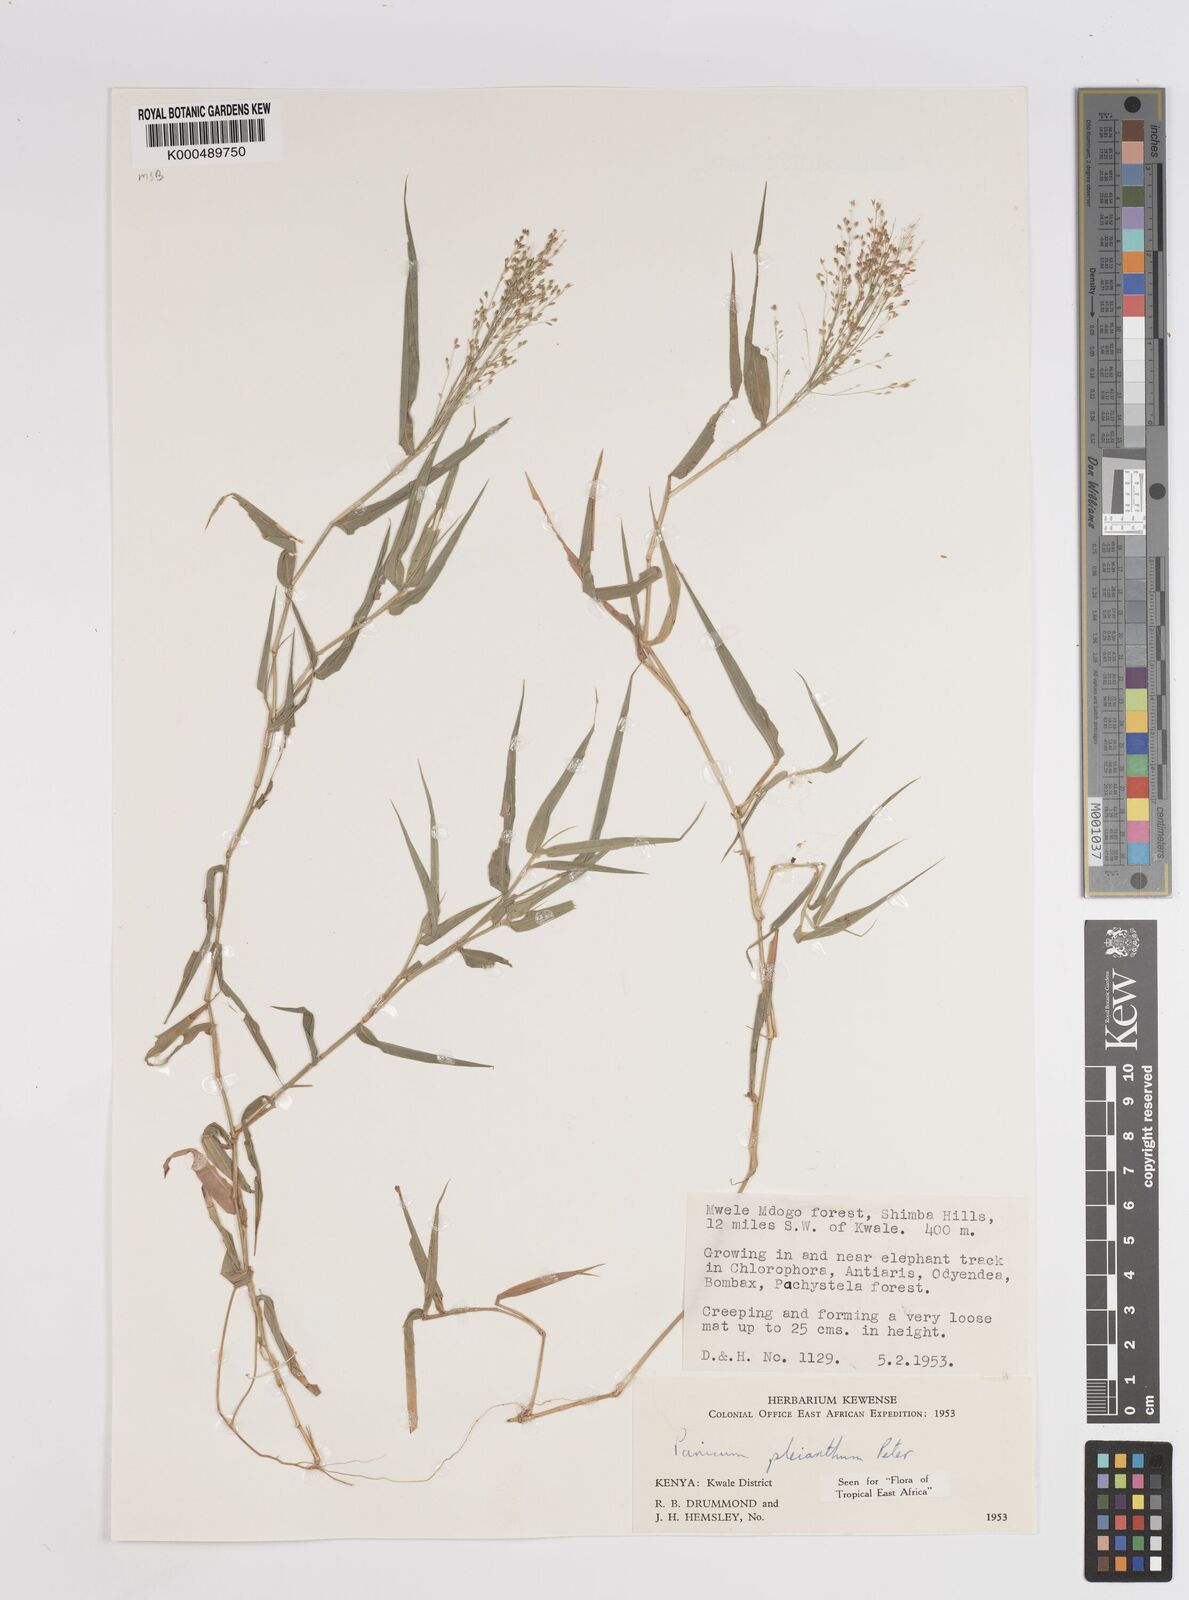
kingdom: Plantae
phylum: Tracheophyta
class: Liliopsida
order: Poales
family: Poaceae
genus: Panicum
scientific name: Panicum pleianthum
